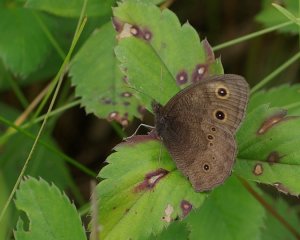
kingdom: Animalia
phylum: Arthropoda
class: Insecta
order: Lepidoptera
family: Nymphalidae
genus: Cercyonis
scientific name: Cercyonis pegala
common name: Common Wood-Nymph
